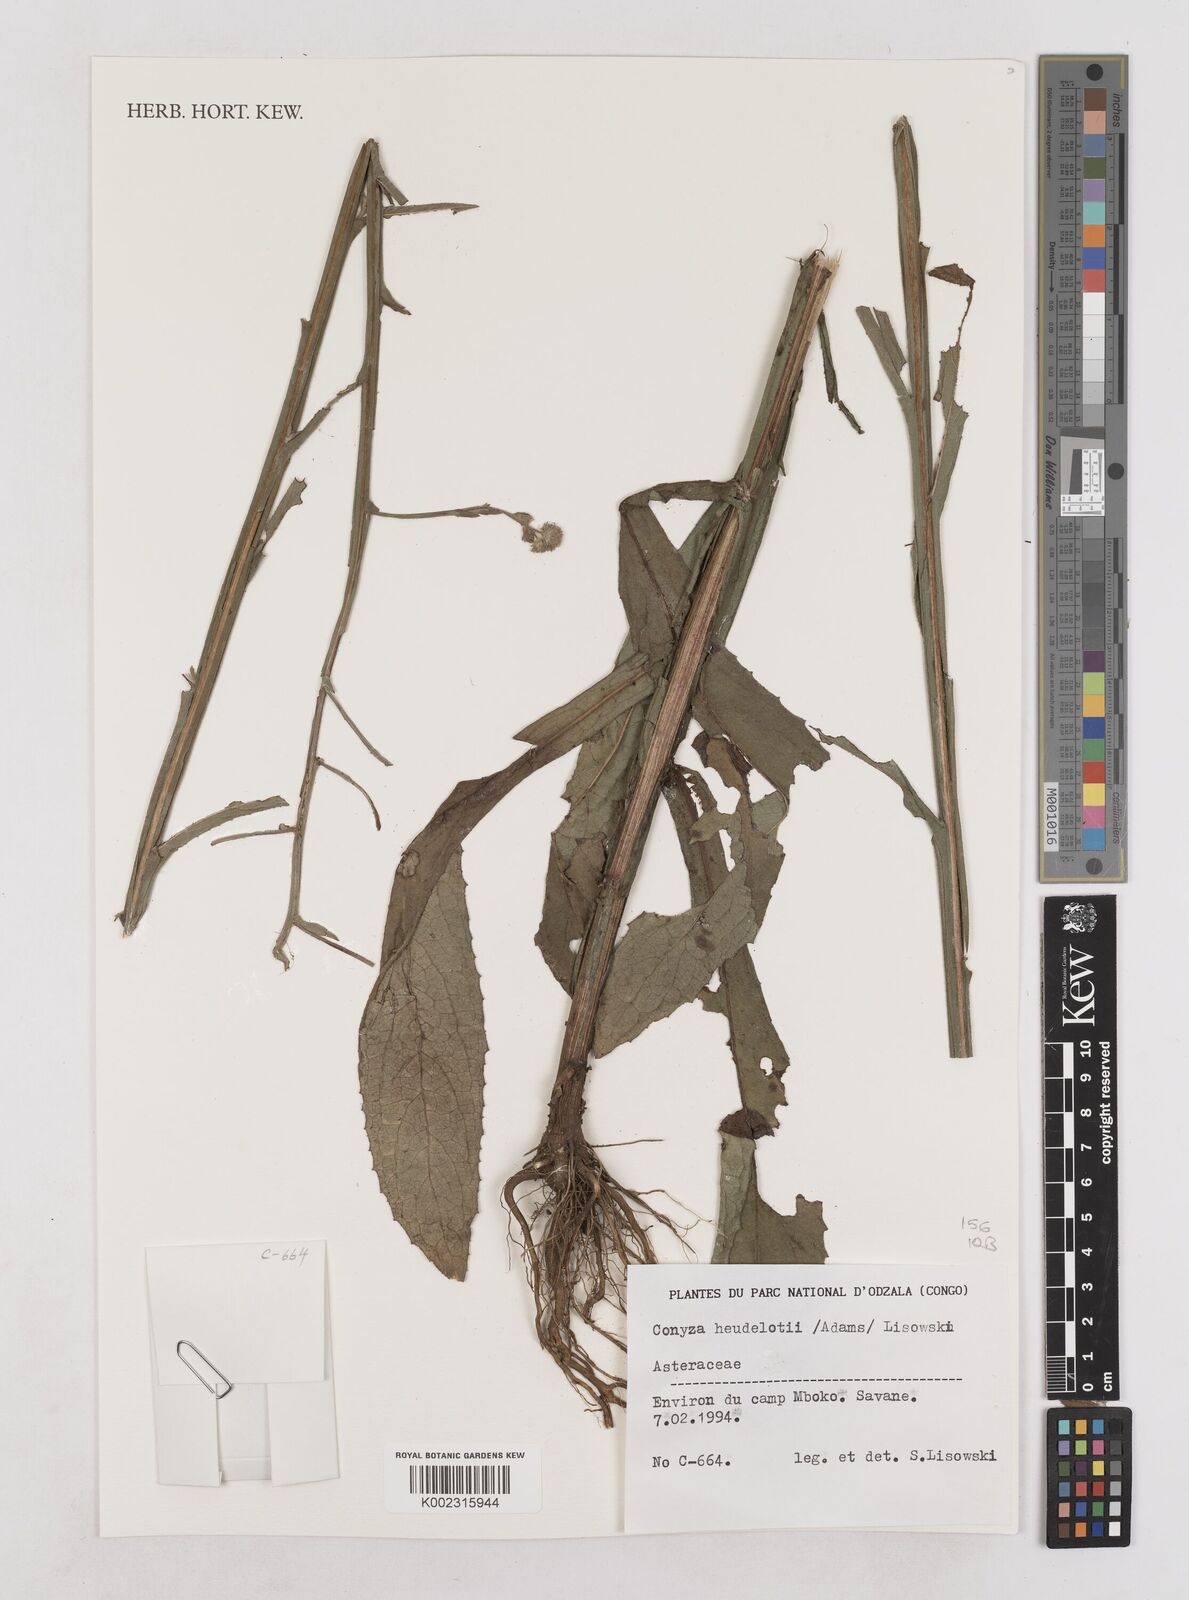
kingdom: Plantae
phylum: Tracheophyta
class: Magnoliopsida
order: Asterales
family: Asteraceae
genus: Microglossa
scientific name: Microglossa pyrifolia
